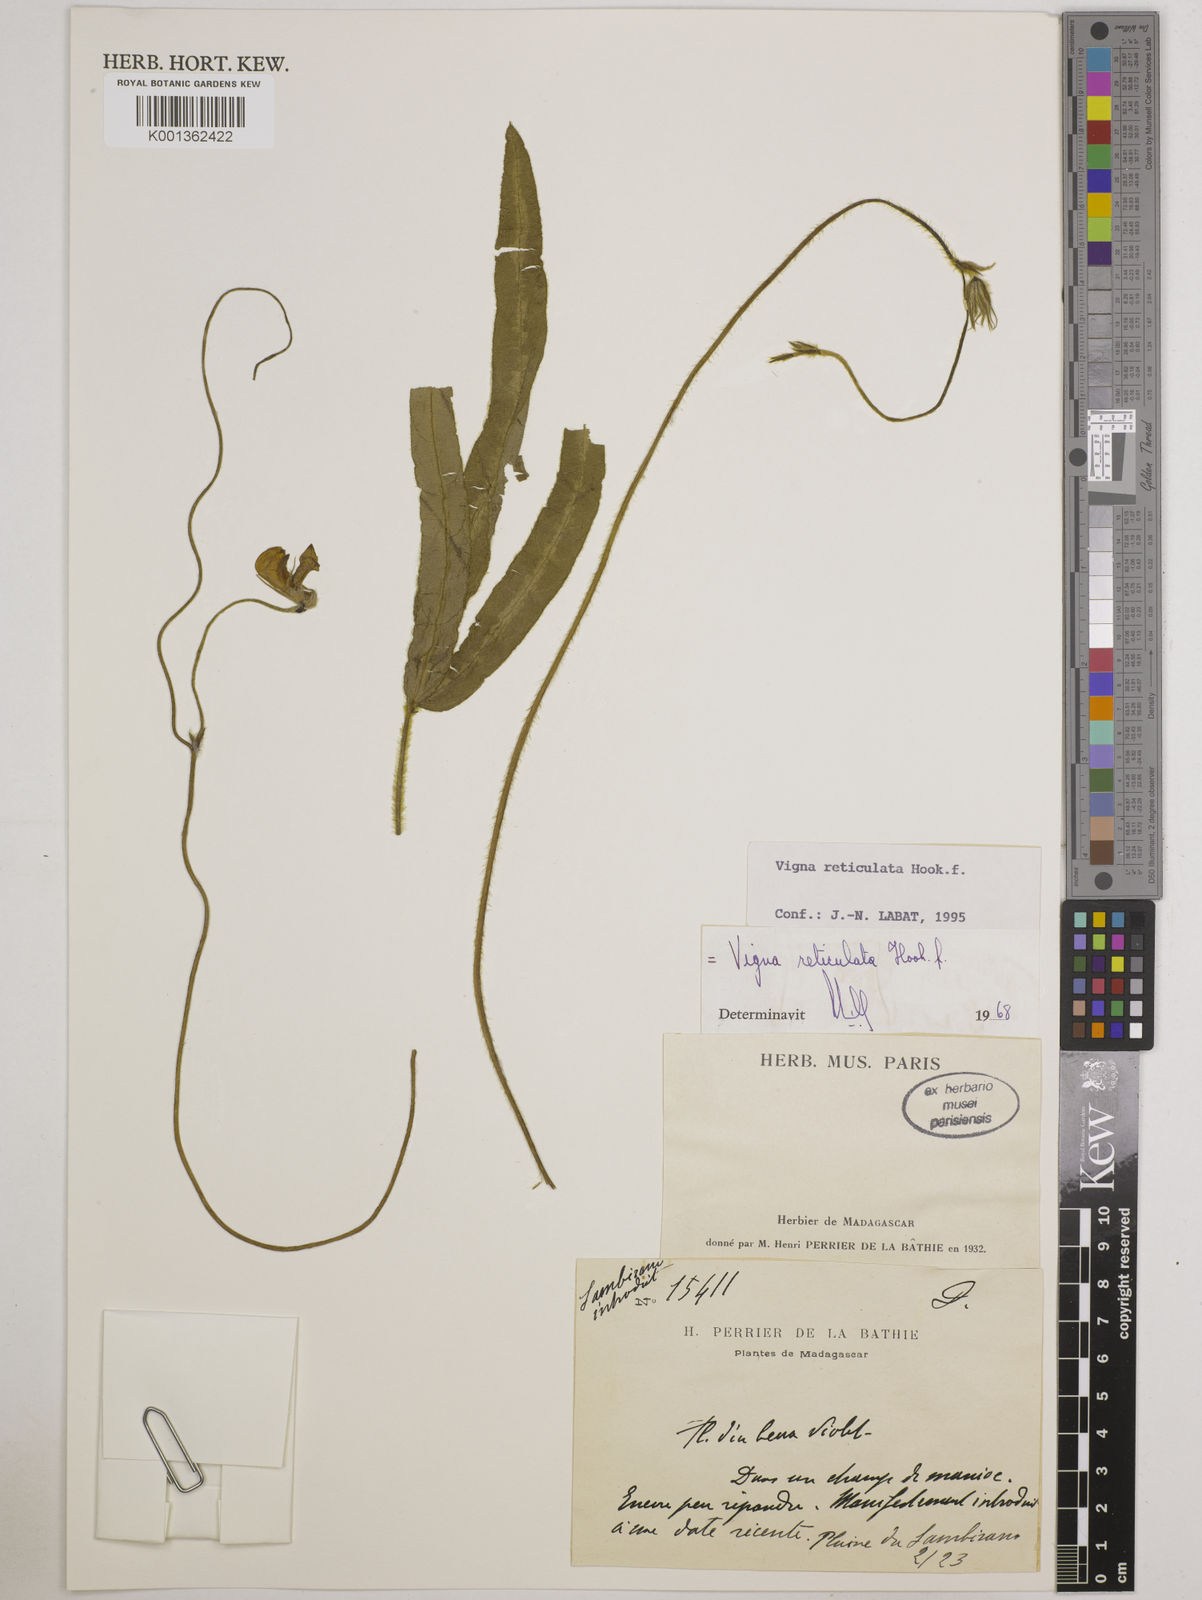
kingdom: Plantae
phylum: Tracheophyta
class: Magnoliopsida
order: Fabales
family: Fabaceae
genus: Vigna
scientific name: Vigna reticulata
